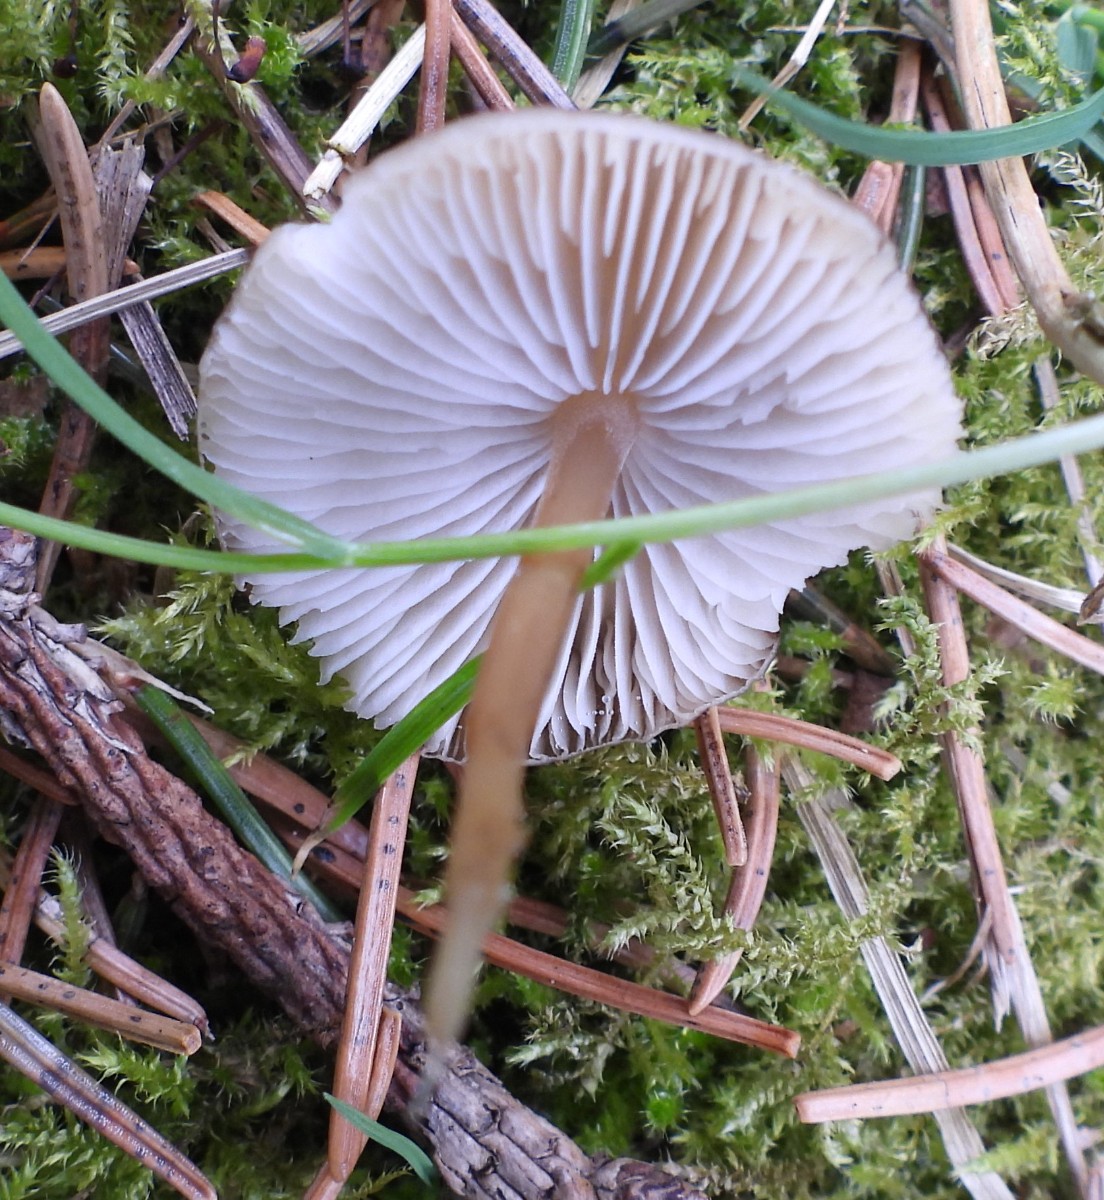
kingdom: Fungi
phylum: Basidiomycota
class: Agaricomycetes
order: Agaricales
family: Physalacriaceae
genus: Strobilurus
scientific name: Strobilurus esculentus
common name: gran-koglehat
